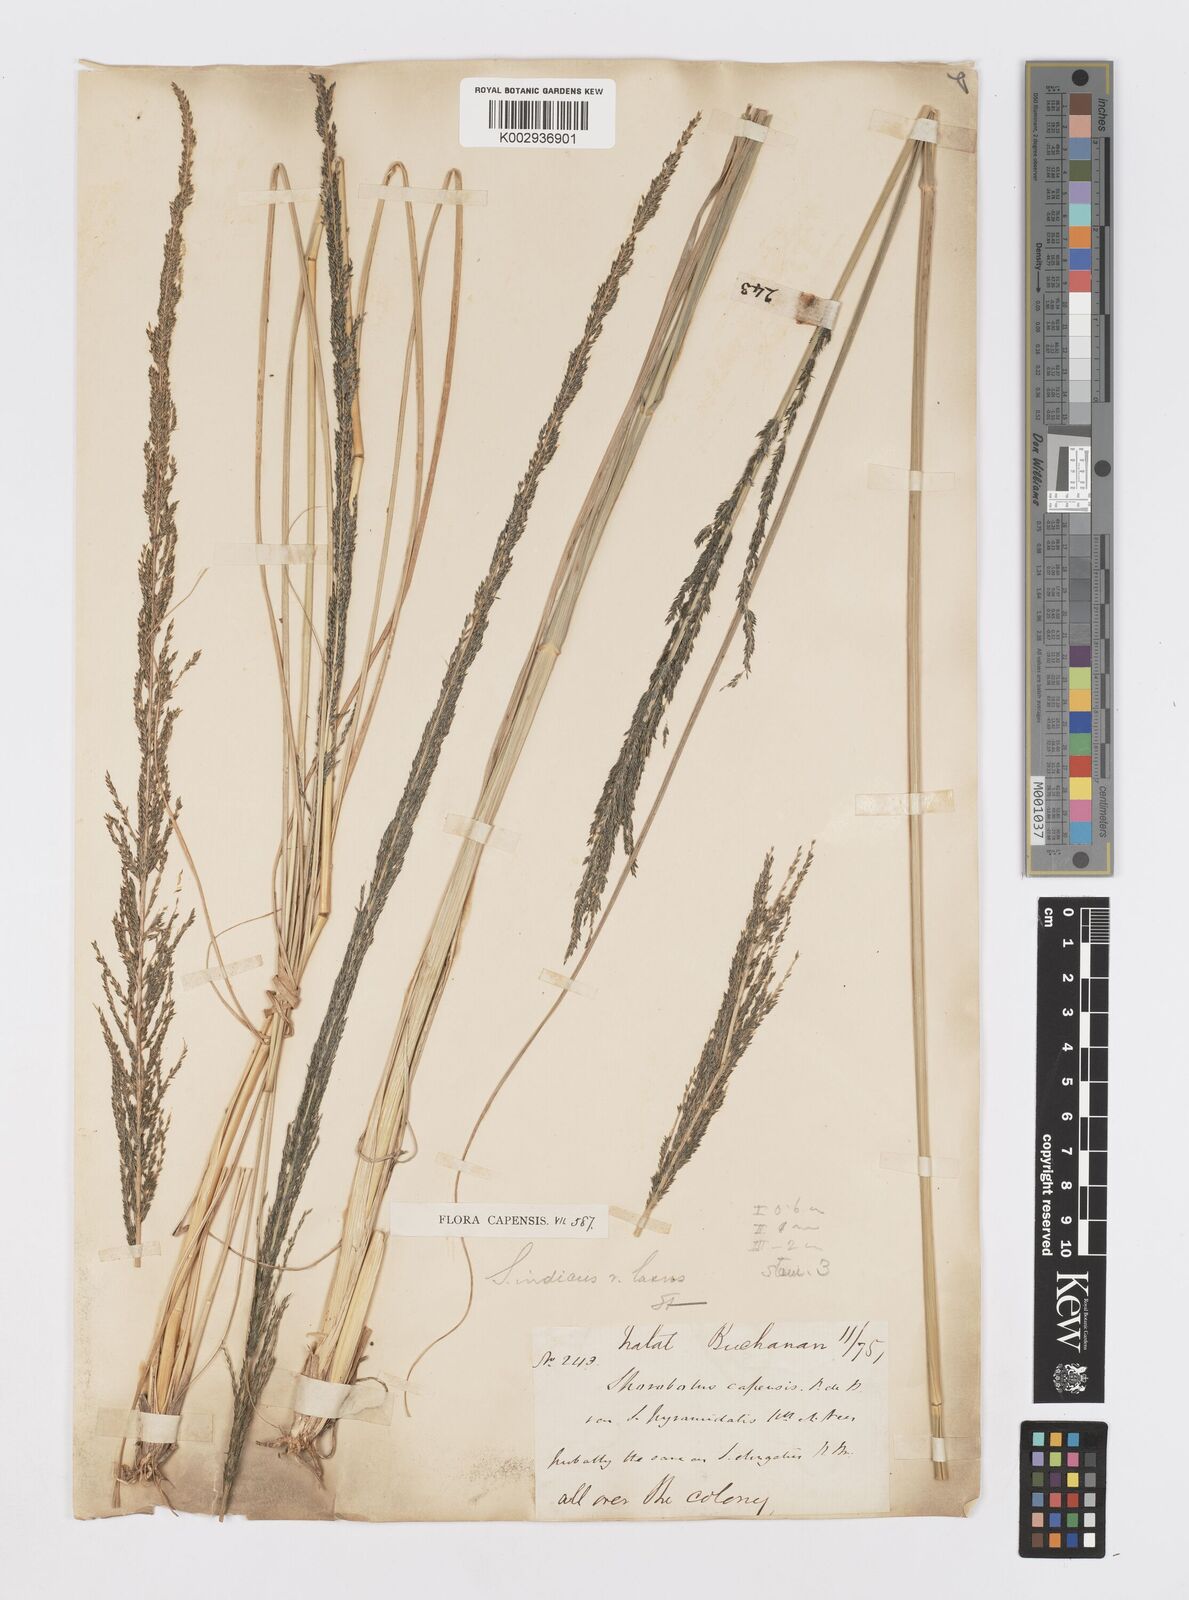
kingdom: Plantae
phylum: Tracheophyta
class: Liliopsida
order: Poales
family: Poaceae
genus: Sporobolus
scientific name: Sporobolus natalensis
